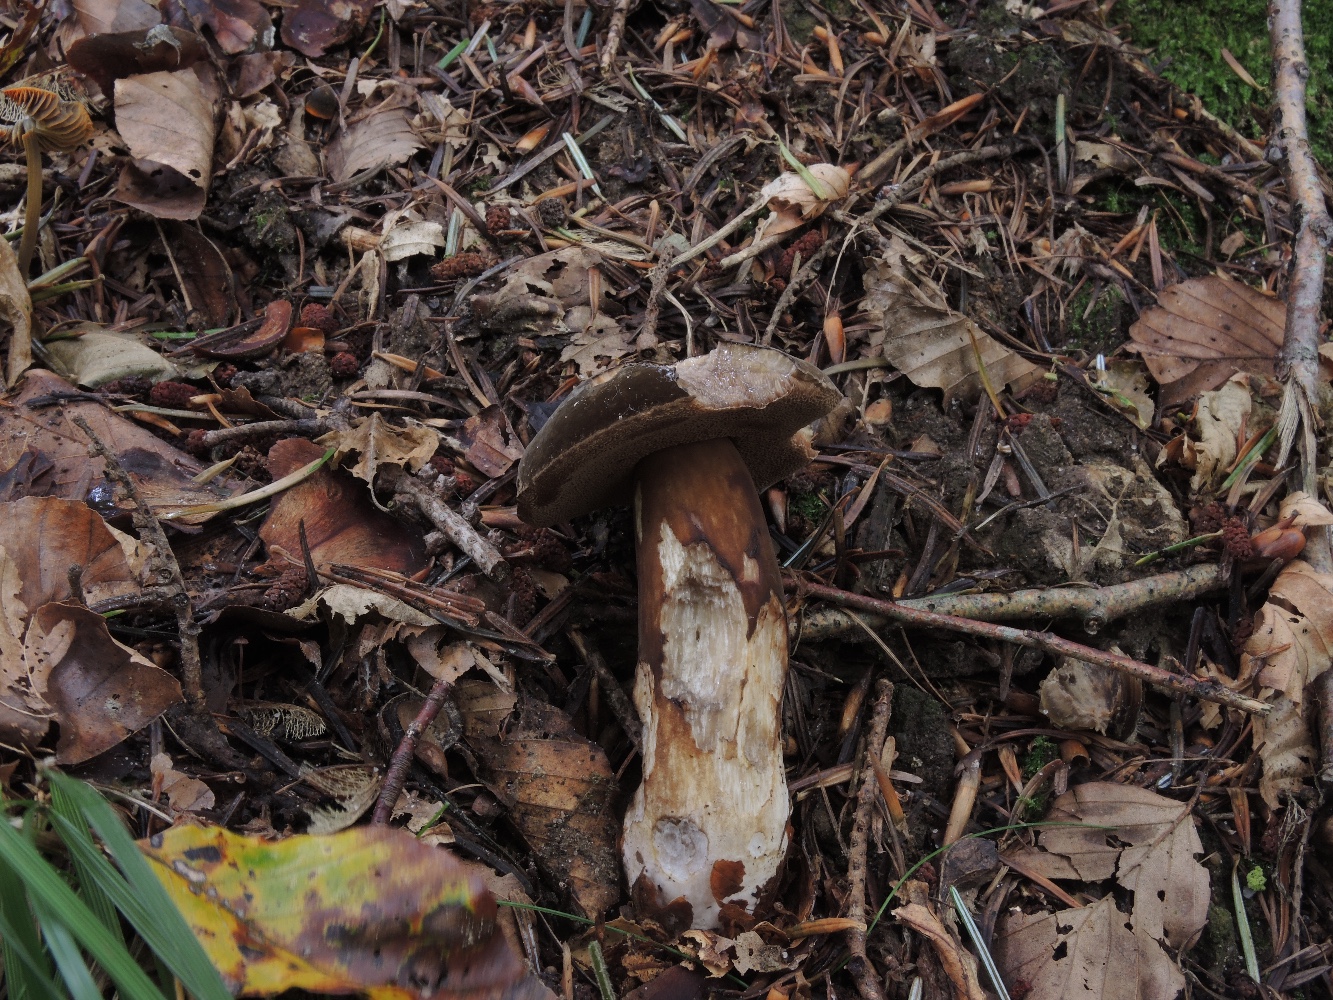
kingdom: Fungi
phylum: Basidiomycota
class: Agaricomycetes
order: Boletales
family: Boletaceae
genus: Porphyrellus
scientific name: Porphyrellus porphyrosporus
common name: sodrørhat
